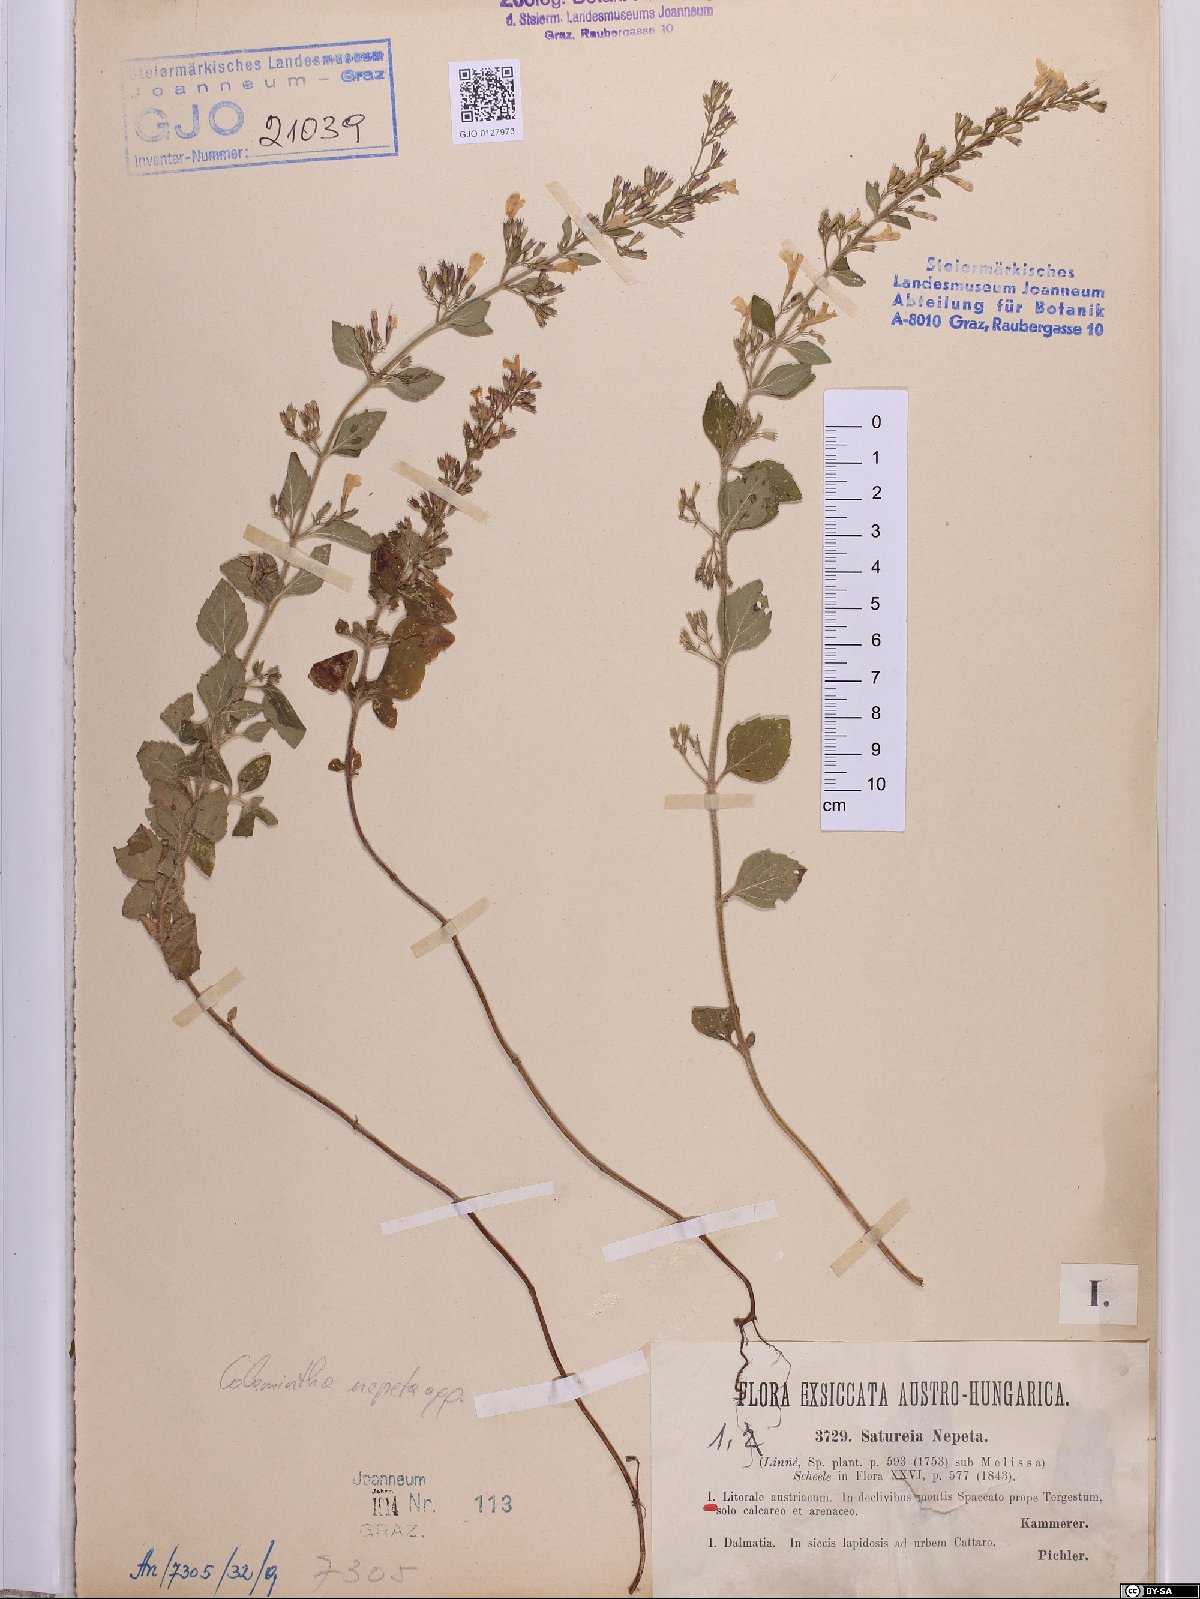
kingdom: Plantae
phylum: Tracheophyta
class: Magnoliopsida
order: Lamiales
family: Lamiaceae
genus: Clinopodium
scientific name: Clinopodium nepeta
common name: Lesser calamint
